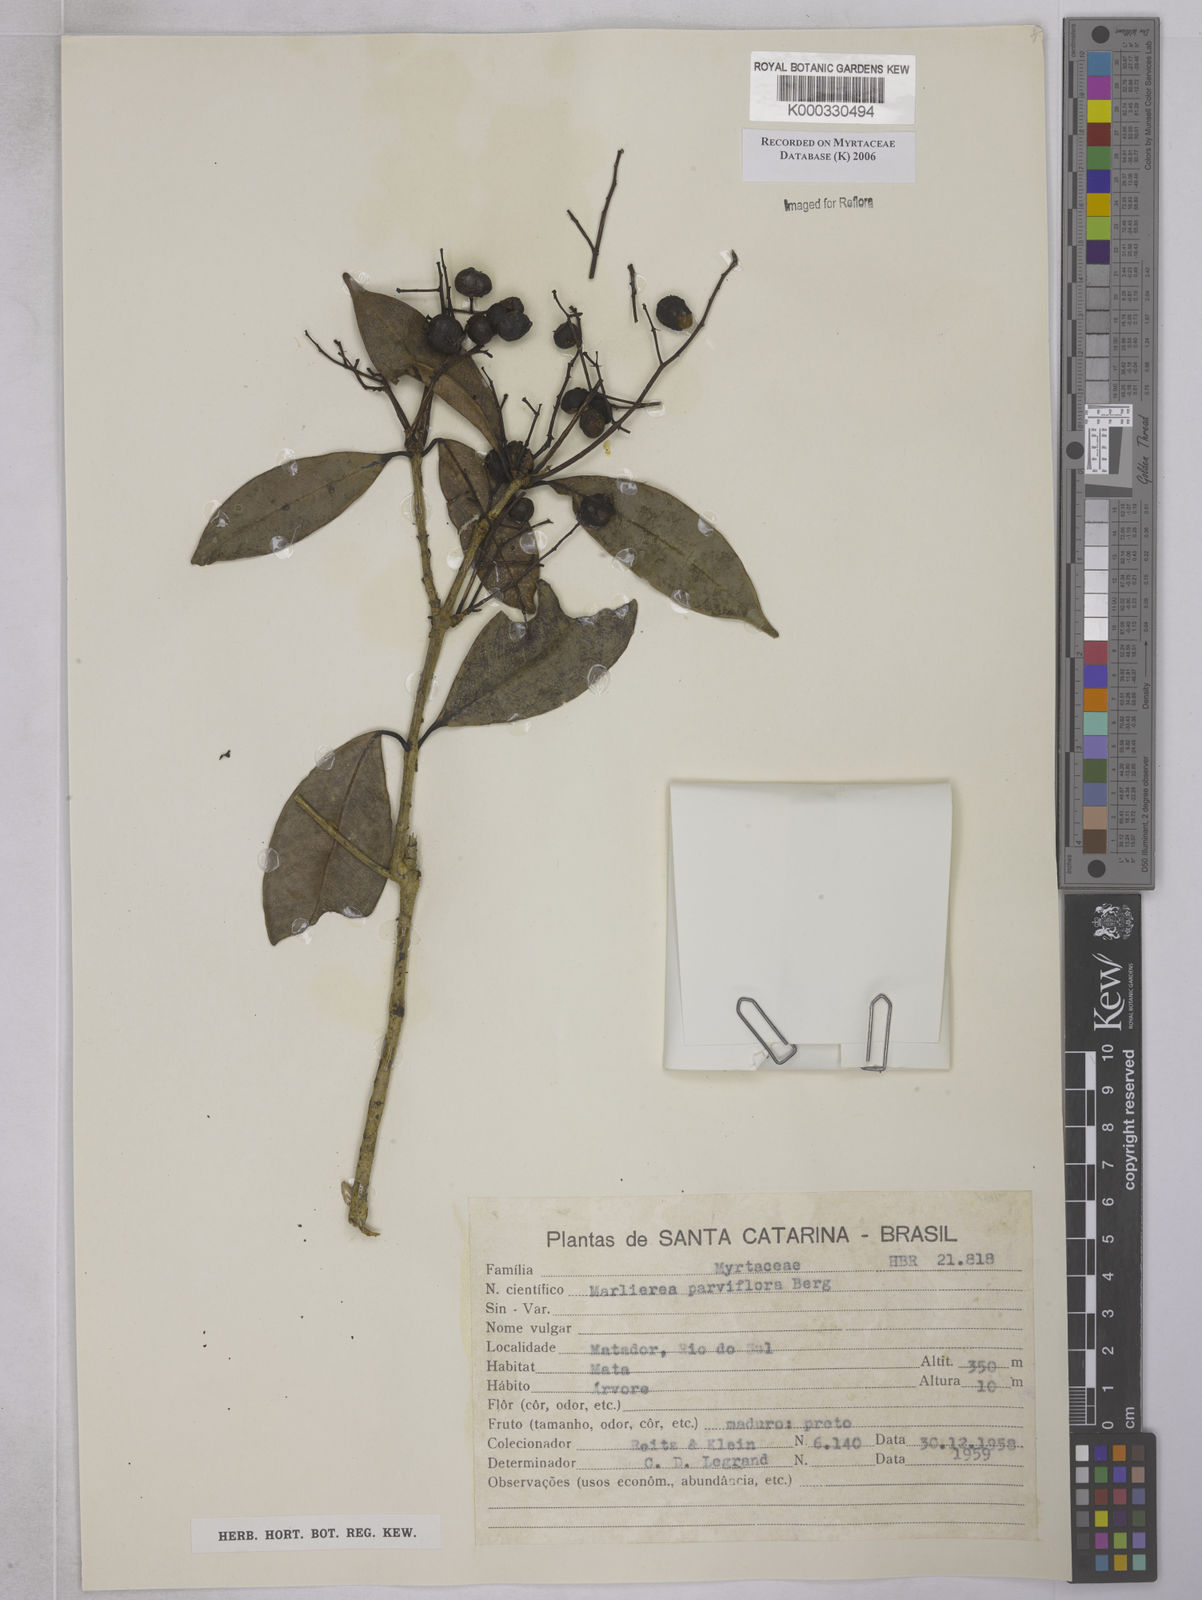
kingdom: Plantae
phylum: Tracheophyta
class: Magnoliopsida
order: Myrtales
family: Myrtaceae
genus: Marlierea
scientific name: Marlierea
